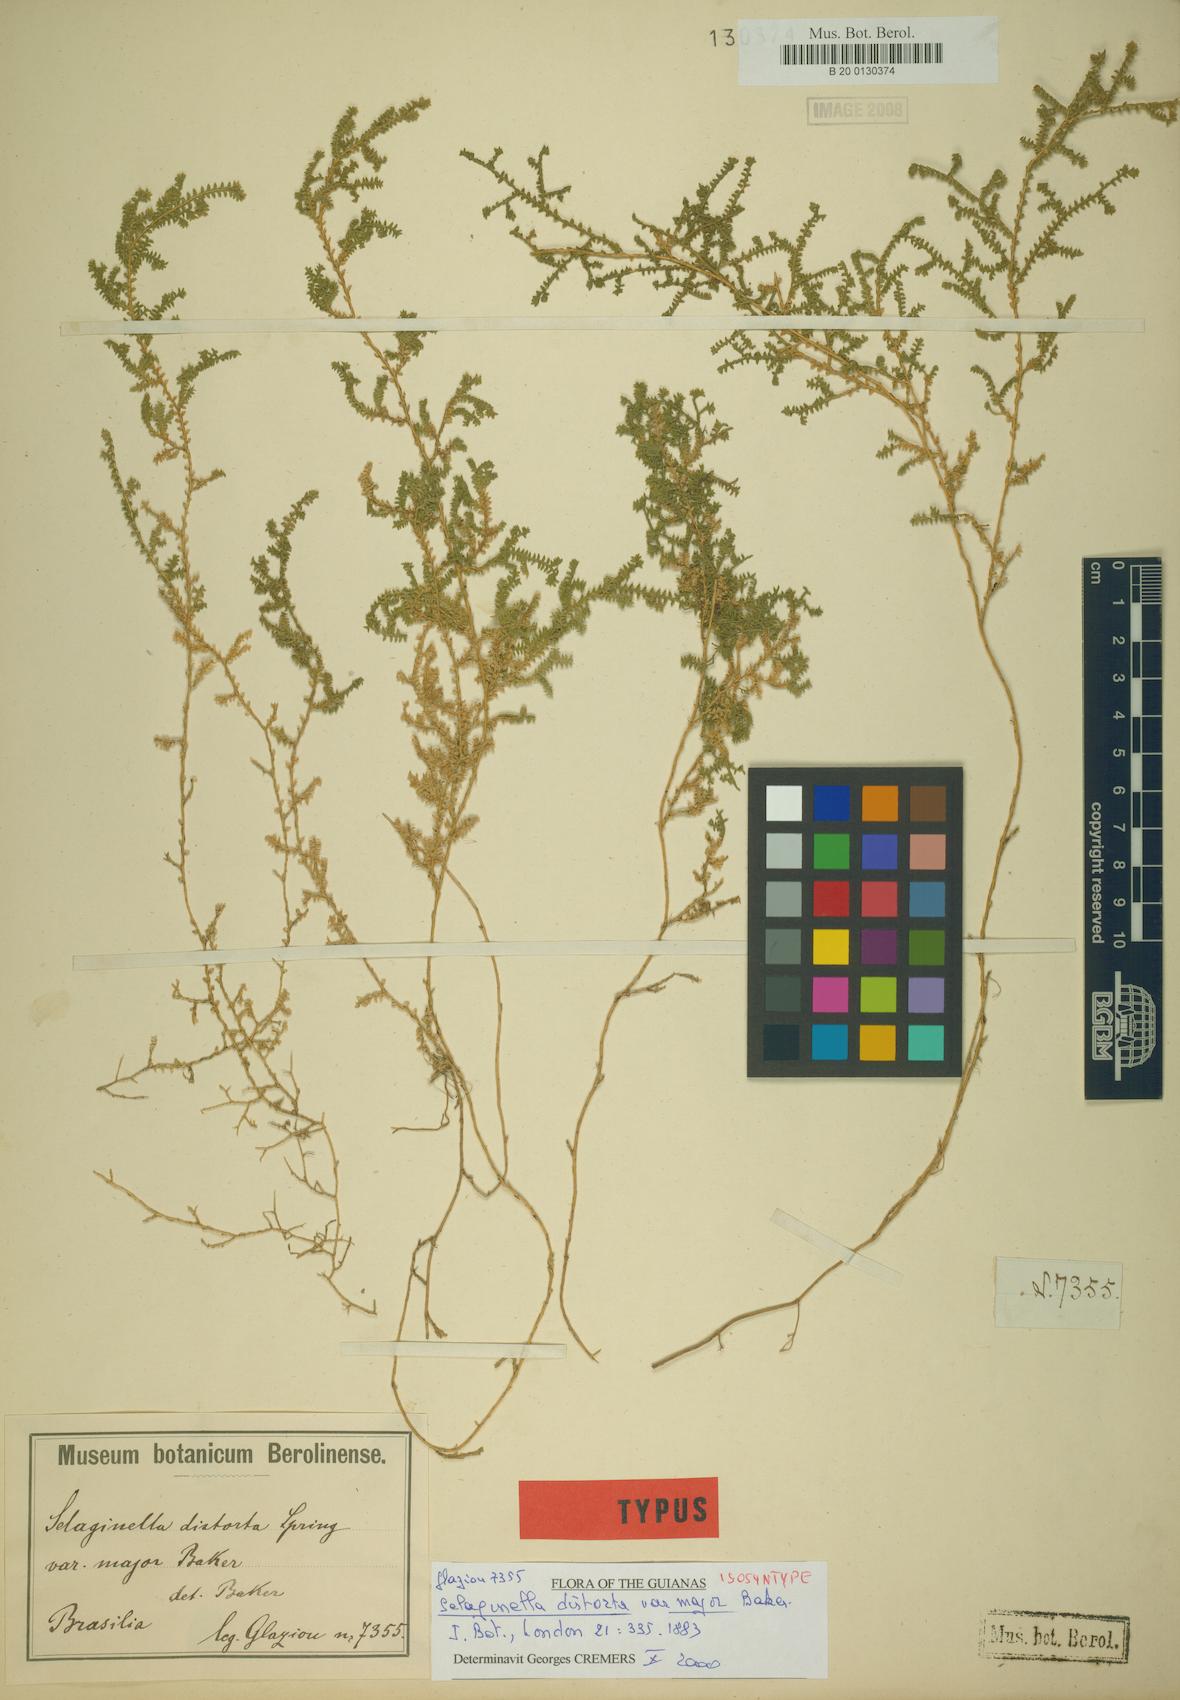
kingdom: Plantae
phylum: Tracheophyta
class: Lycopodiopsida
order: Selaginellales
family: Selaginellaceae
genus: Selaginella
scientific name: Selaginella marginata
